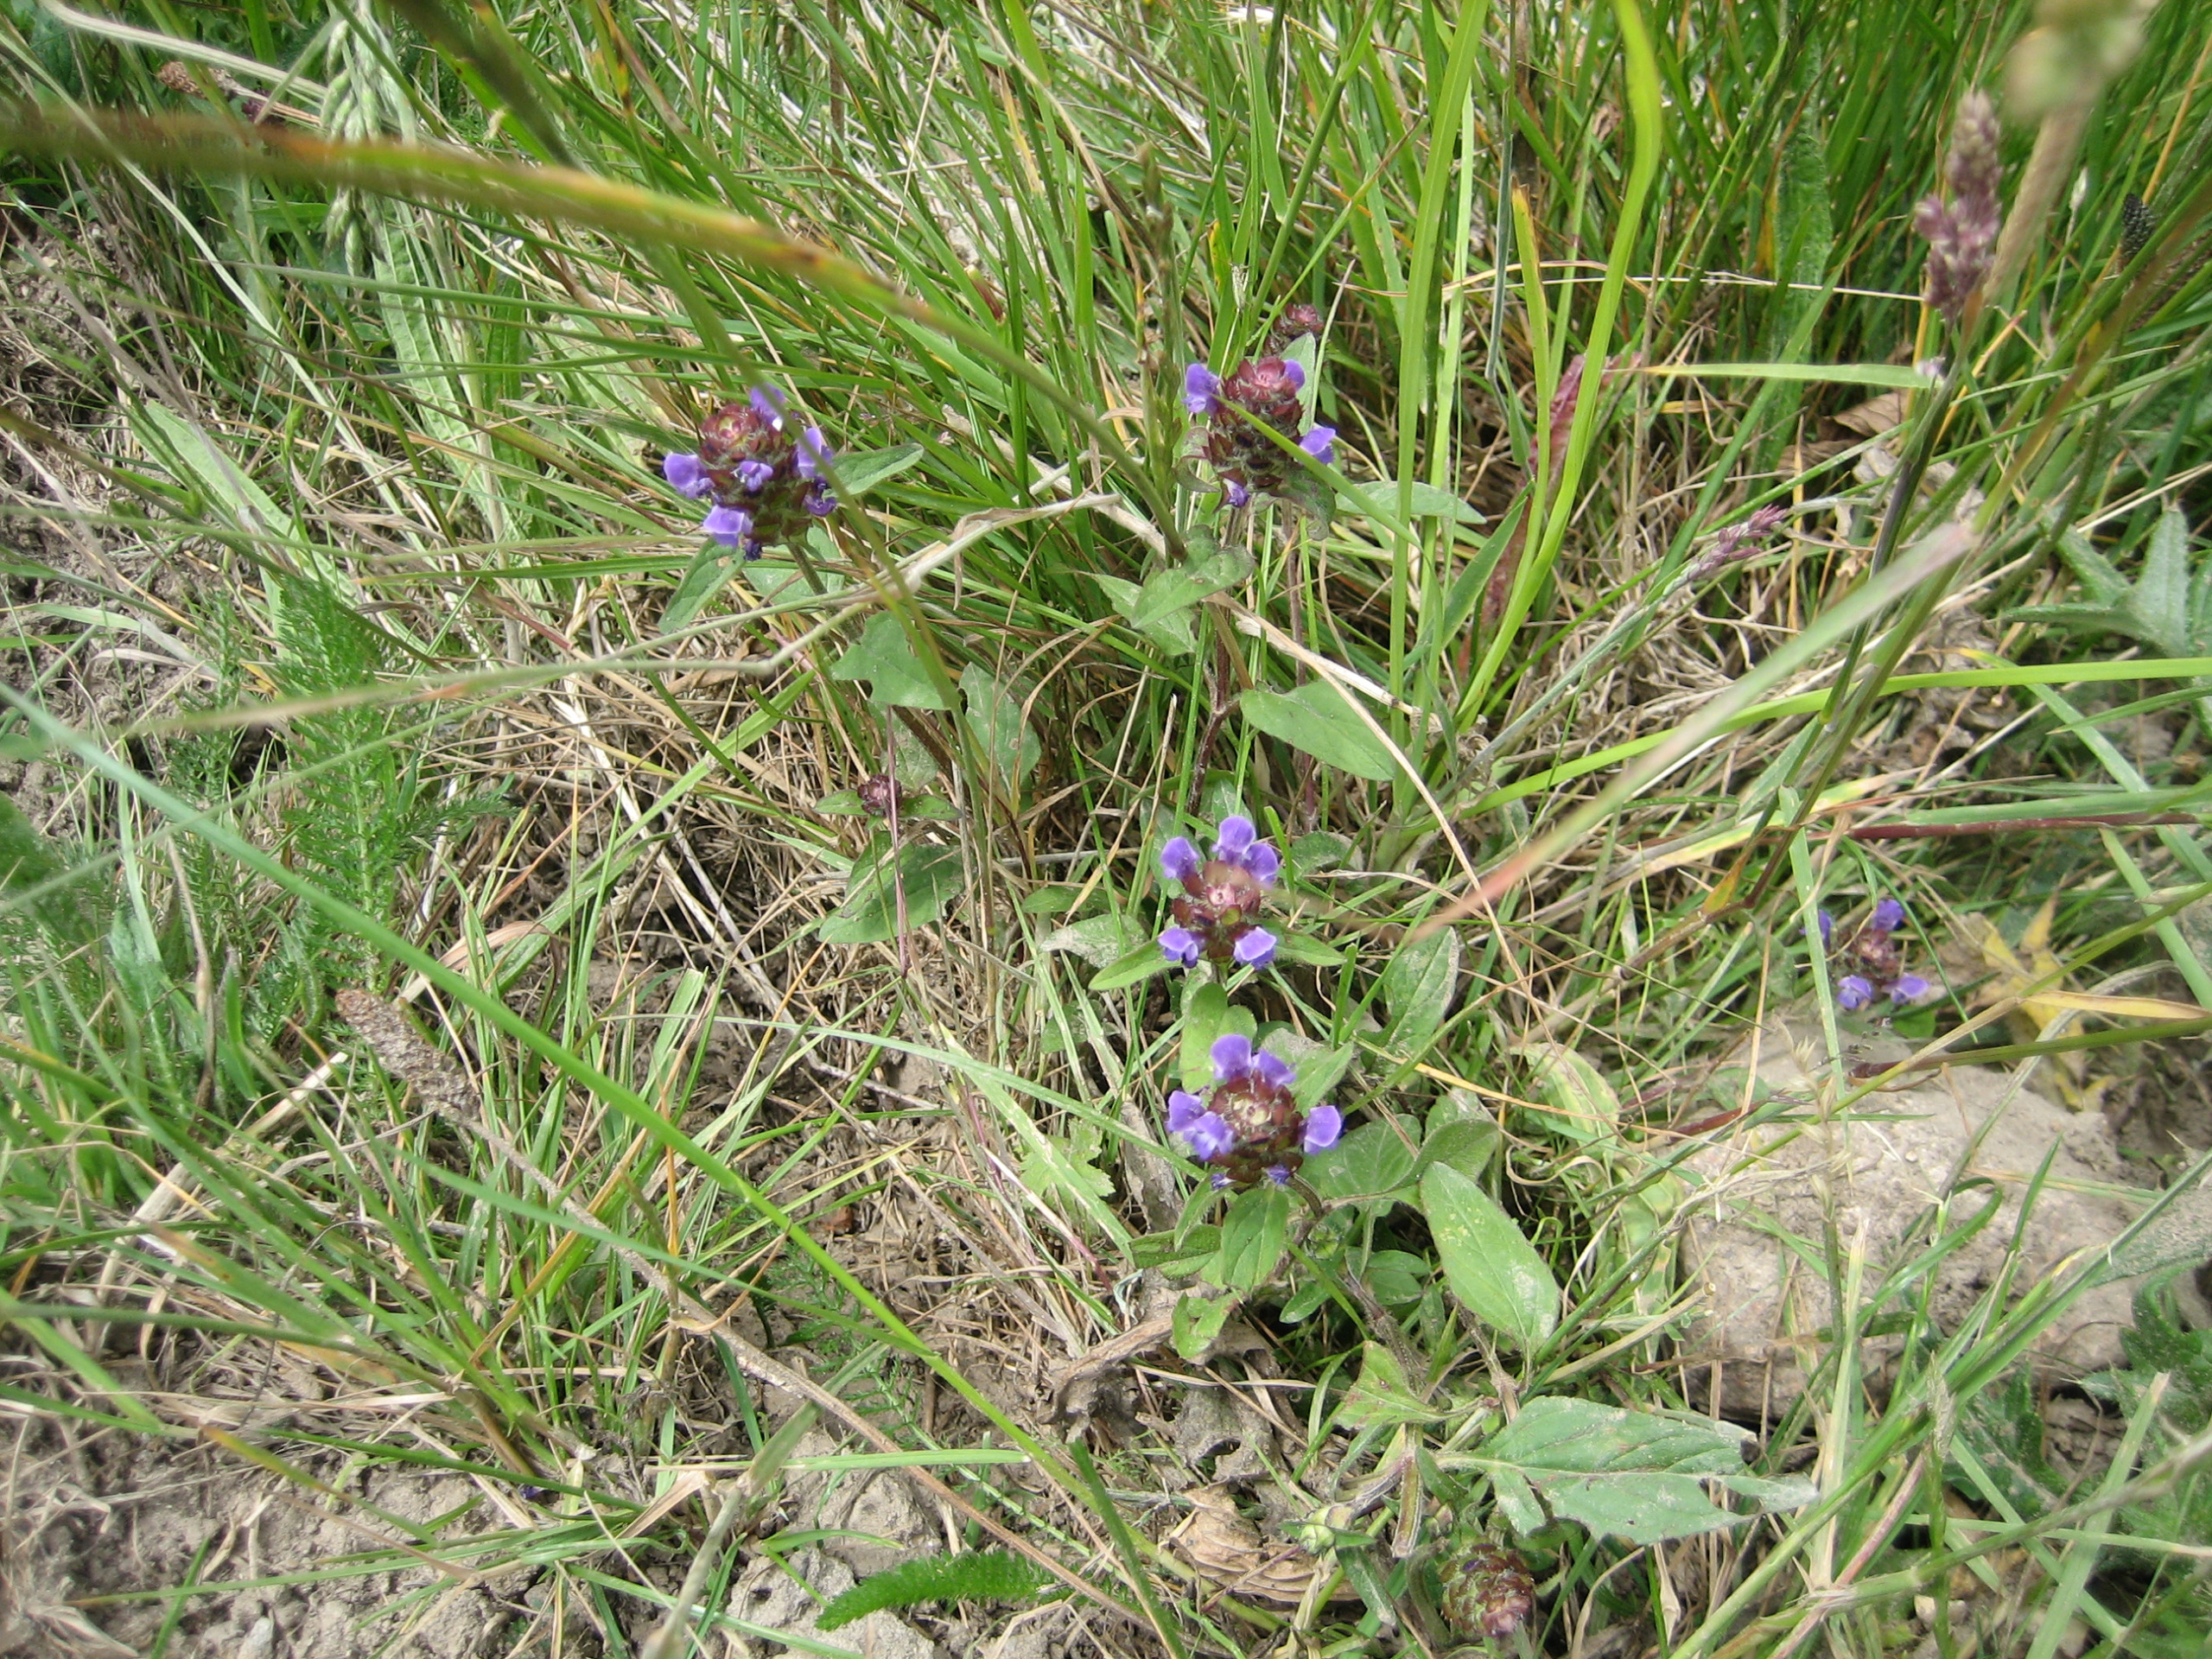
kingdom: Plantae
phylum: Tracheophyta
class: Magnoliopsida
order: Lamiales
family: Lamiaceae
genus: Prunella
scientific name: Prunella vulgaris
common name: Almindelig brunelle
